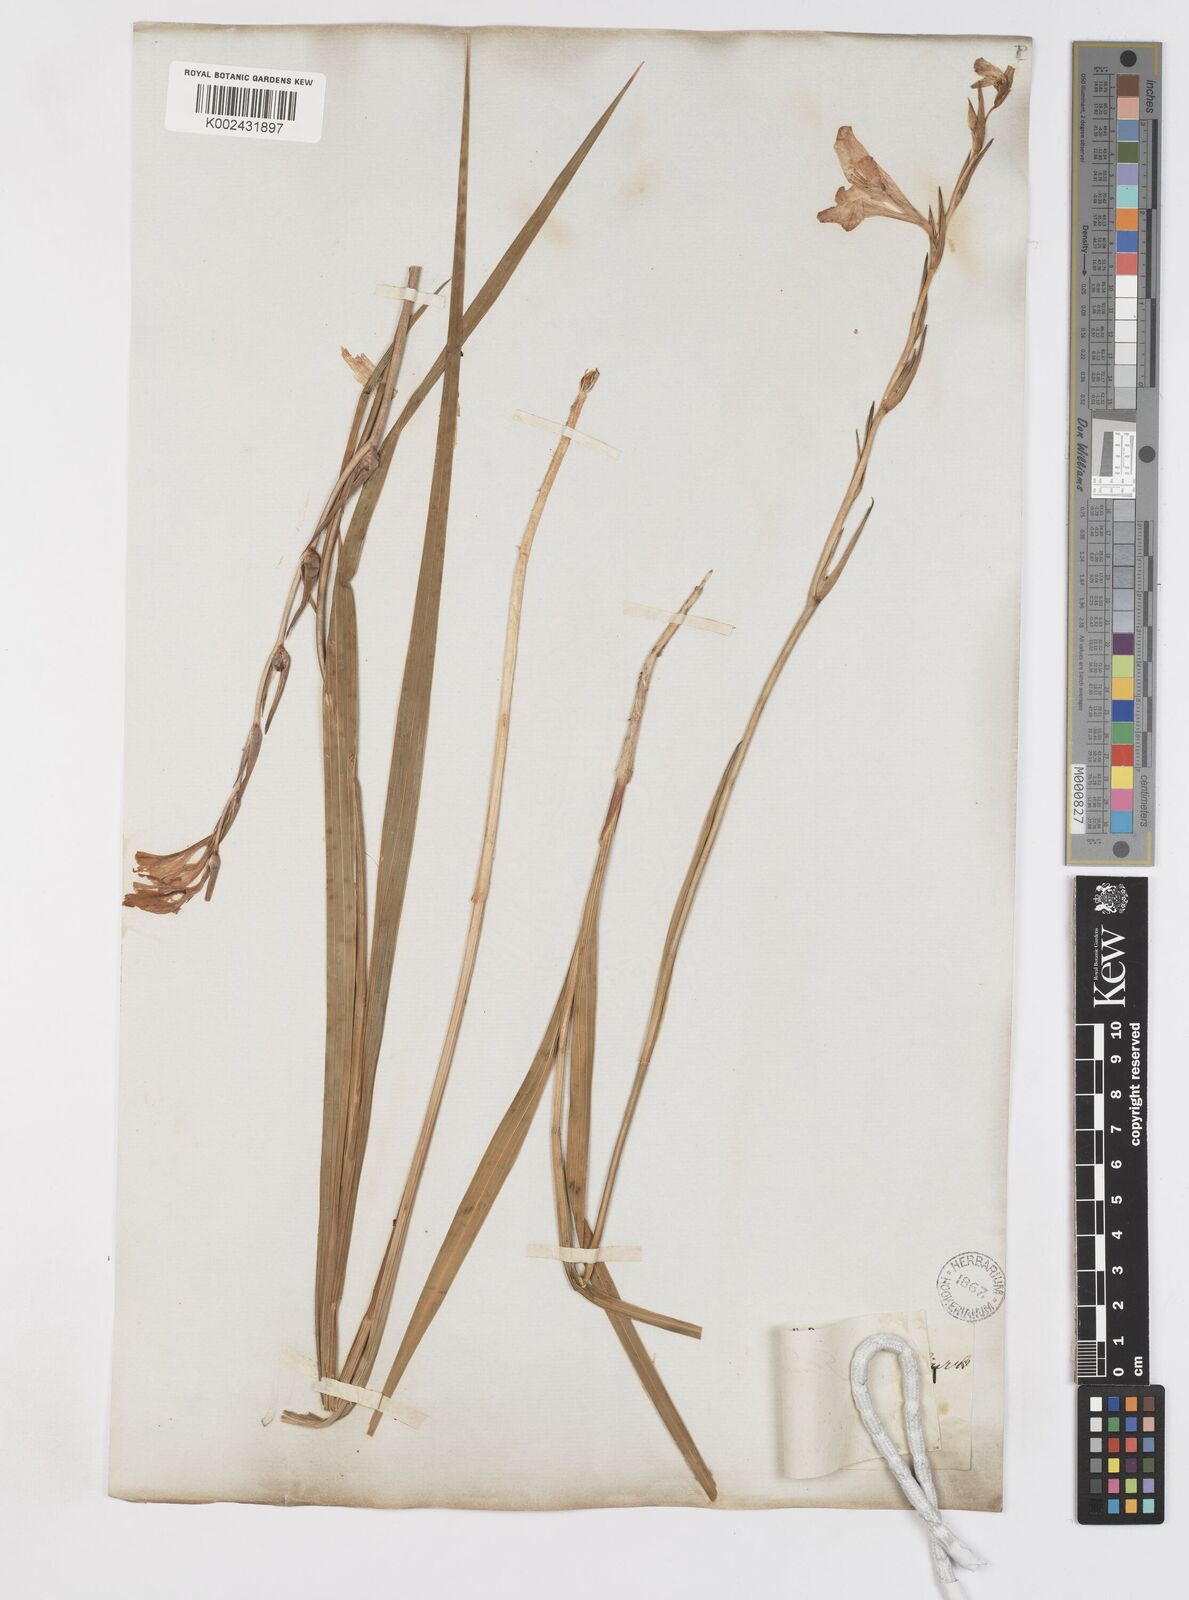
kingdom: Plantae
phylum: Tracheophyta
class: Liliopsida
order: Asparagales
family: Iridaceae
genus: Gladiolus
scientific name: Gladiolus italicus
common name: Field gladiolus
